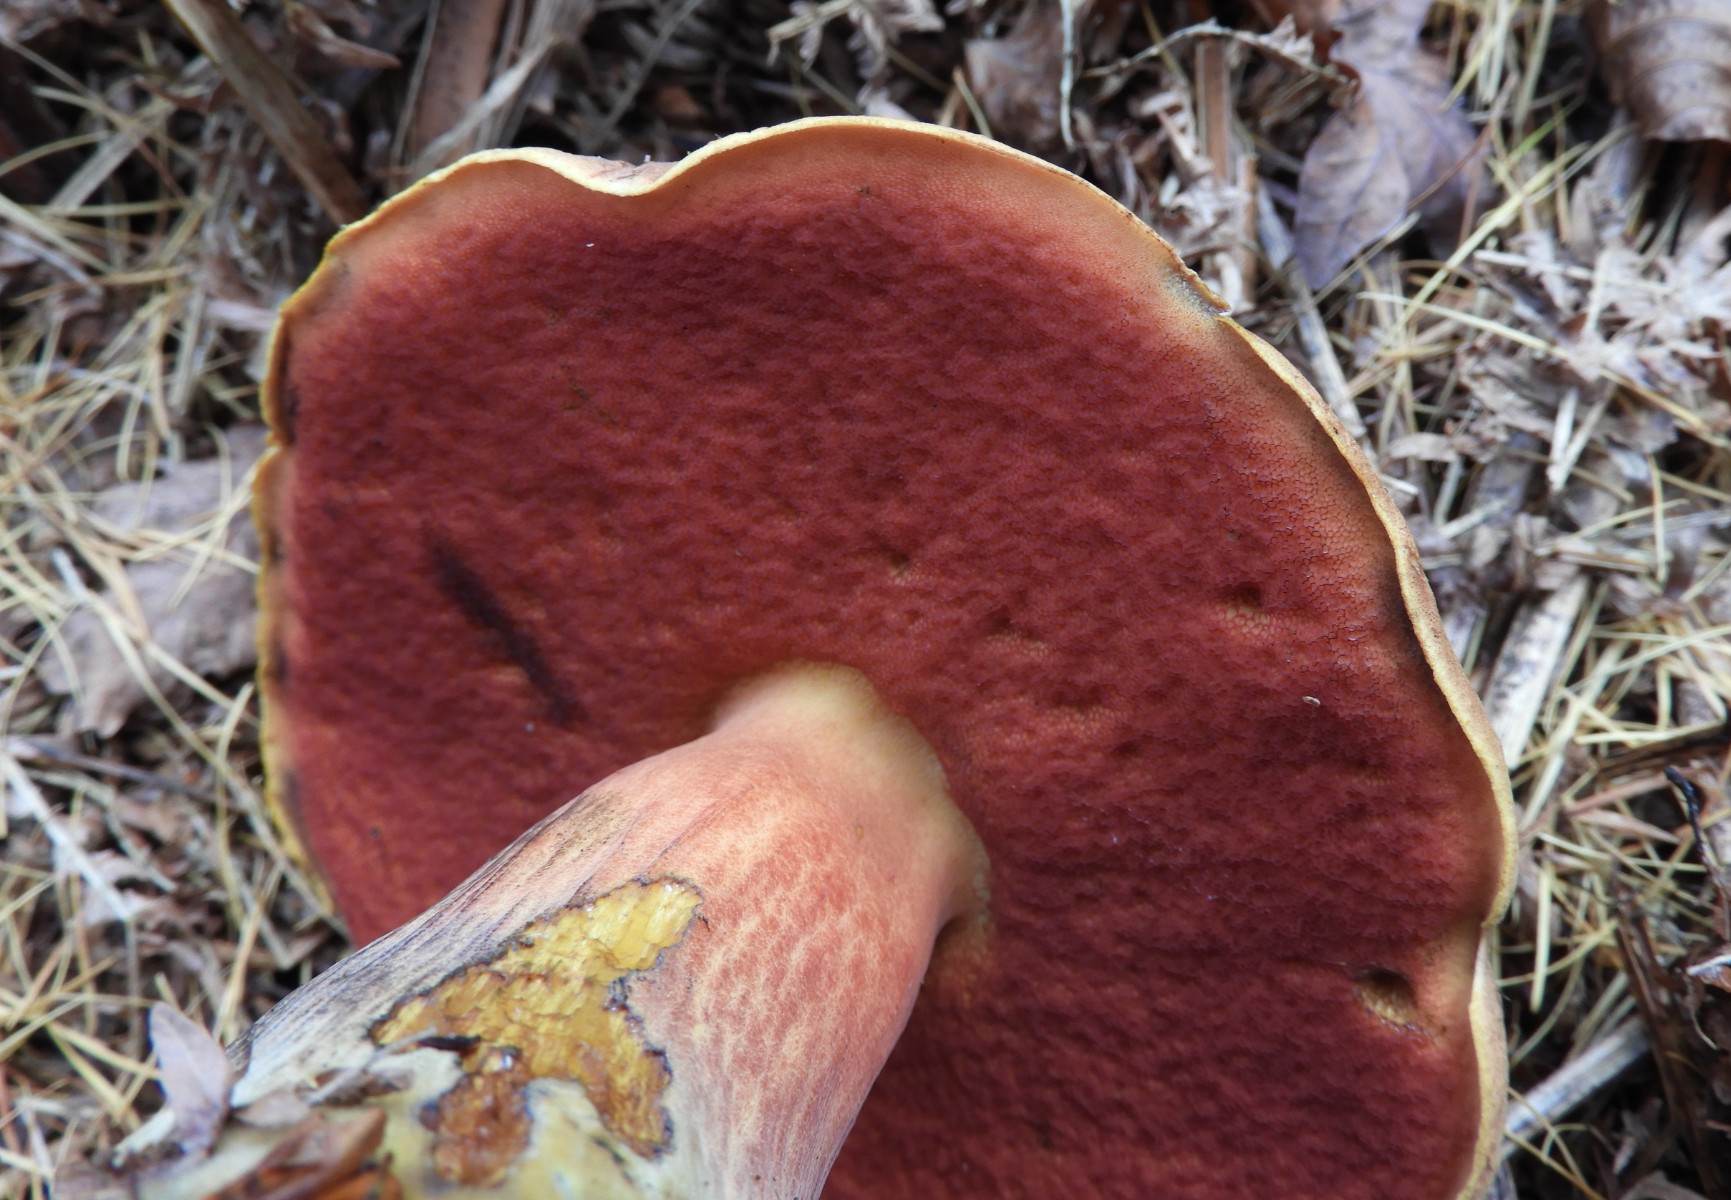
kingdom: Fungi
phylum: Basidiomycota
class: Agaricomycetes
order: Boletales
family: Boletaceae
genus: Neoboletus
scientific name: Neoboletus erythropus
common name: punktstokket indigorørhat
